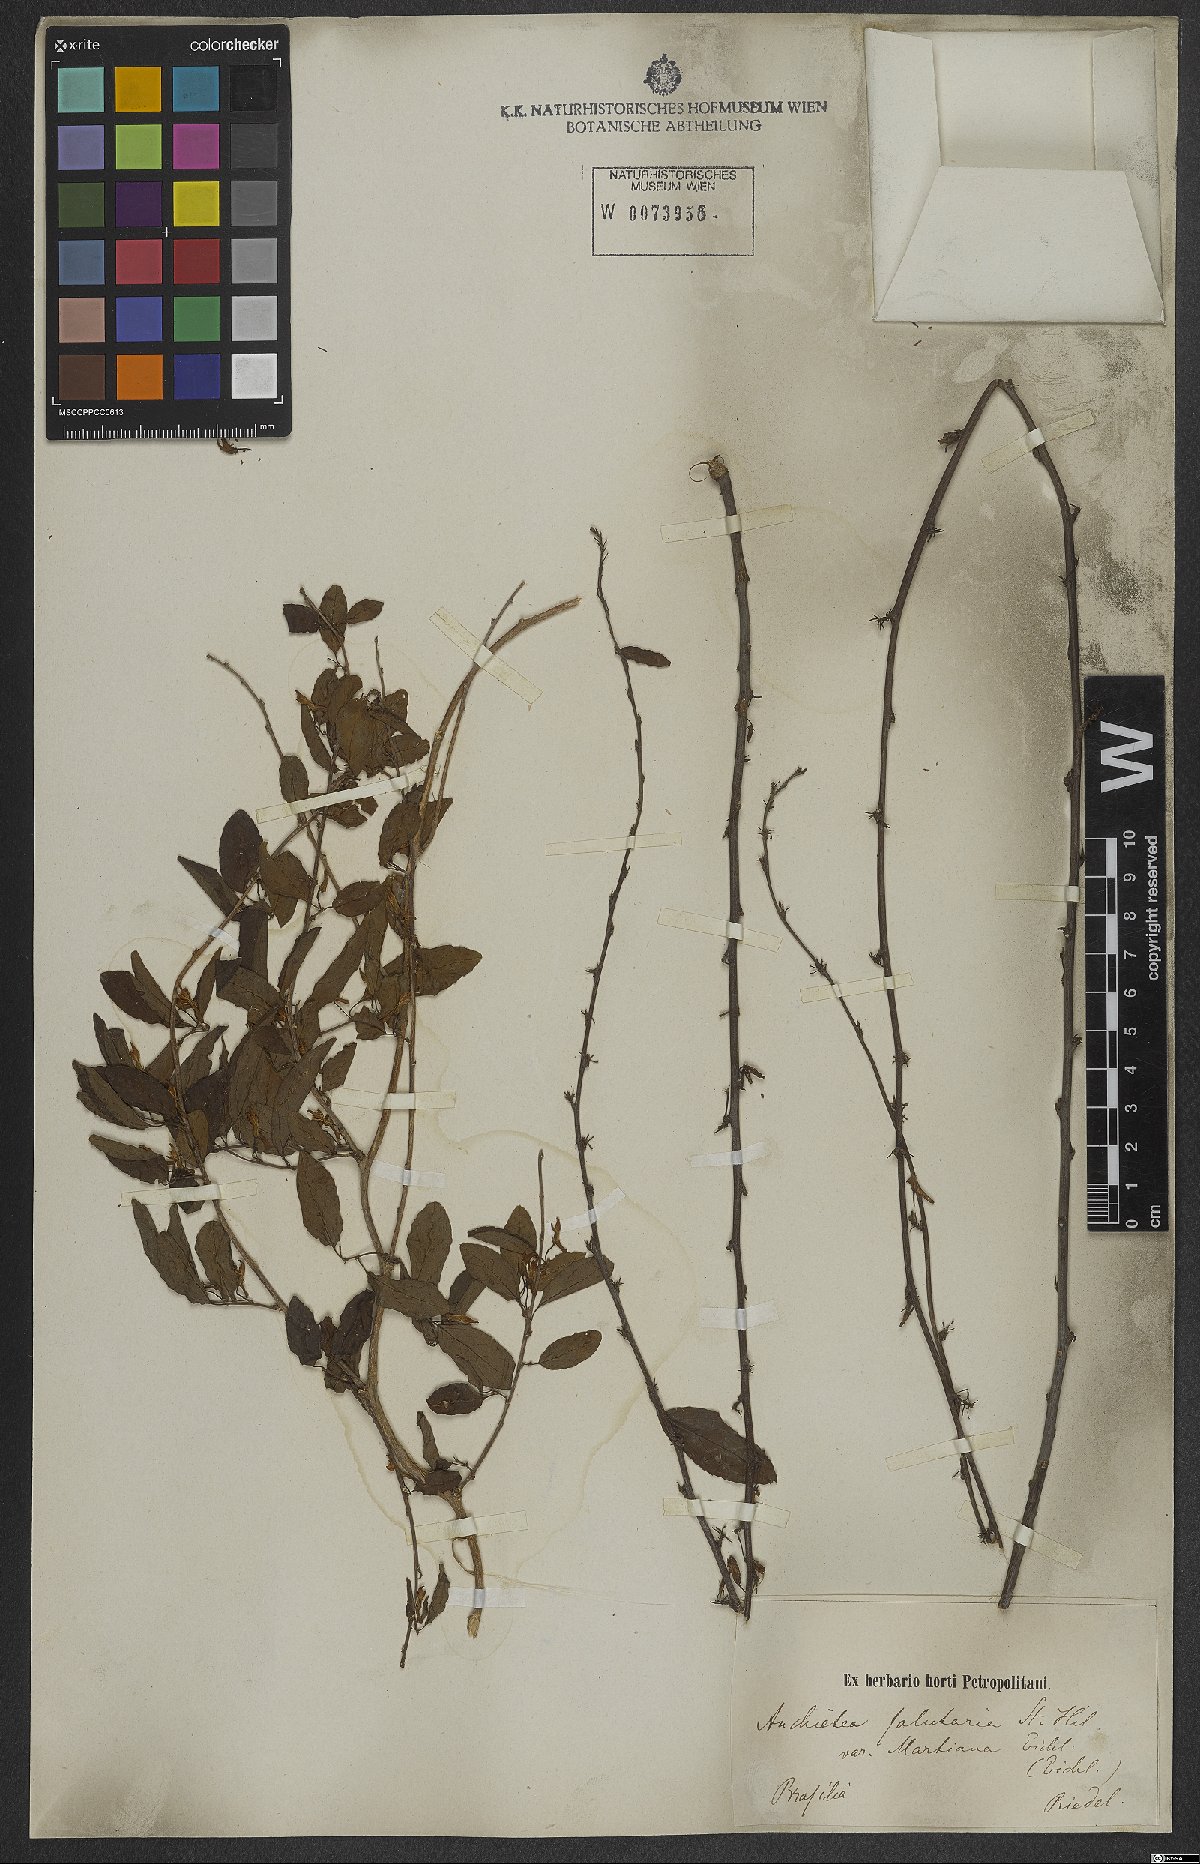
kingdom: Plantae
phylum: Tracheophyta
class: Magnoliopsida
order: Malpighiales
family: Violaceae
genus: Anchietea
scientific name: Anchietea pyrifolia
